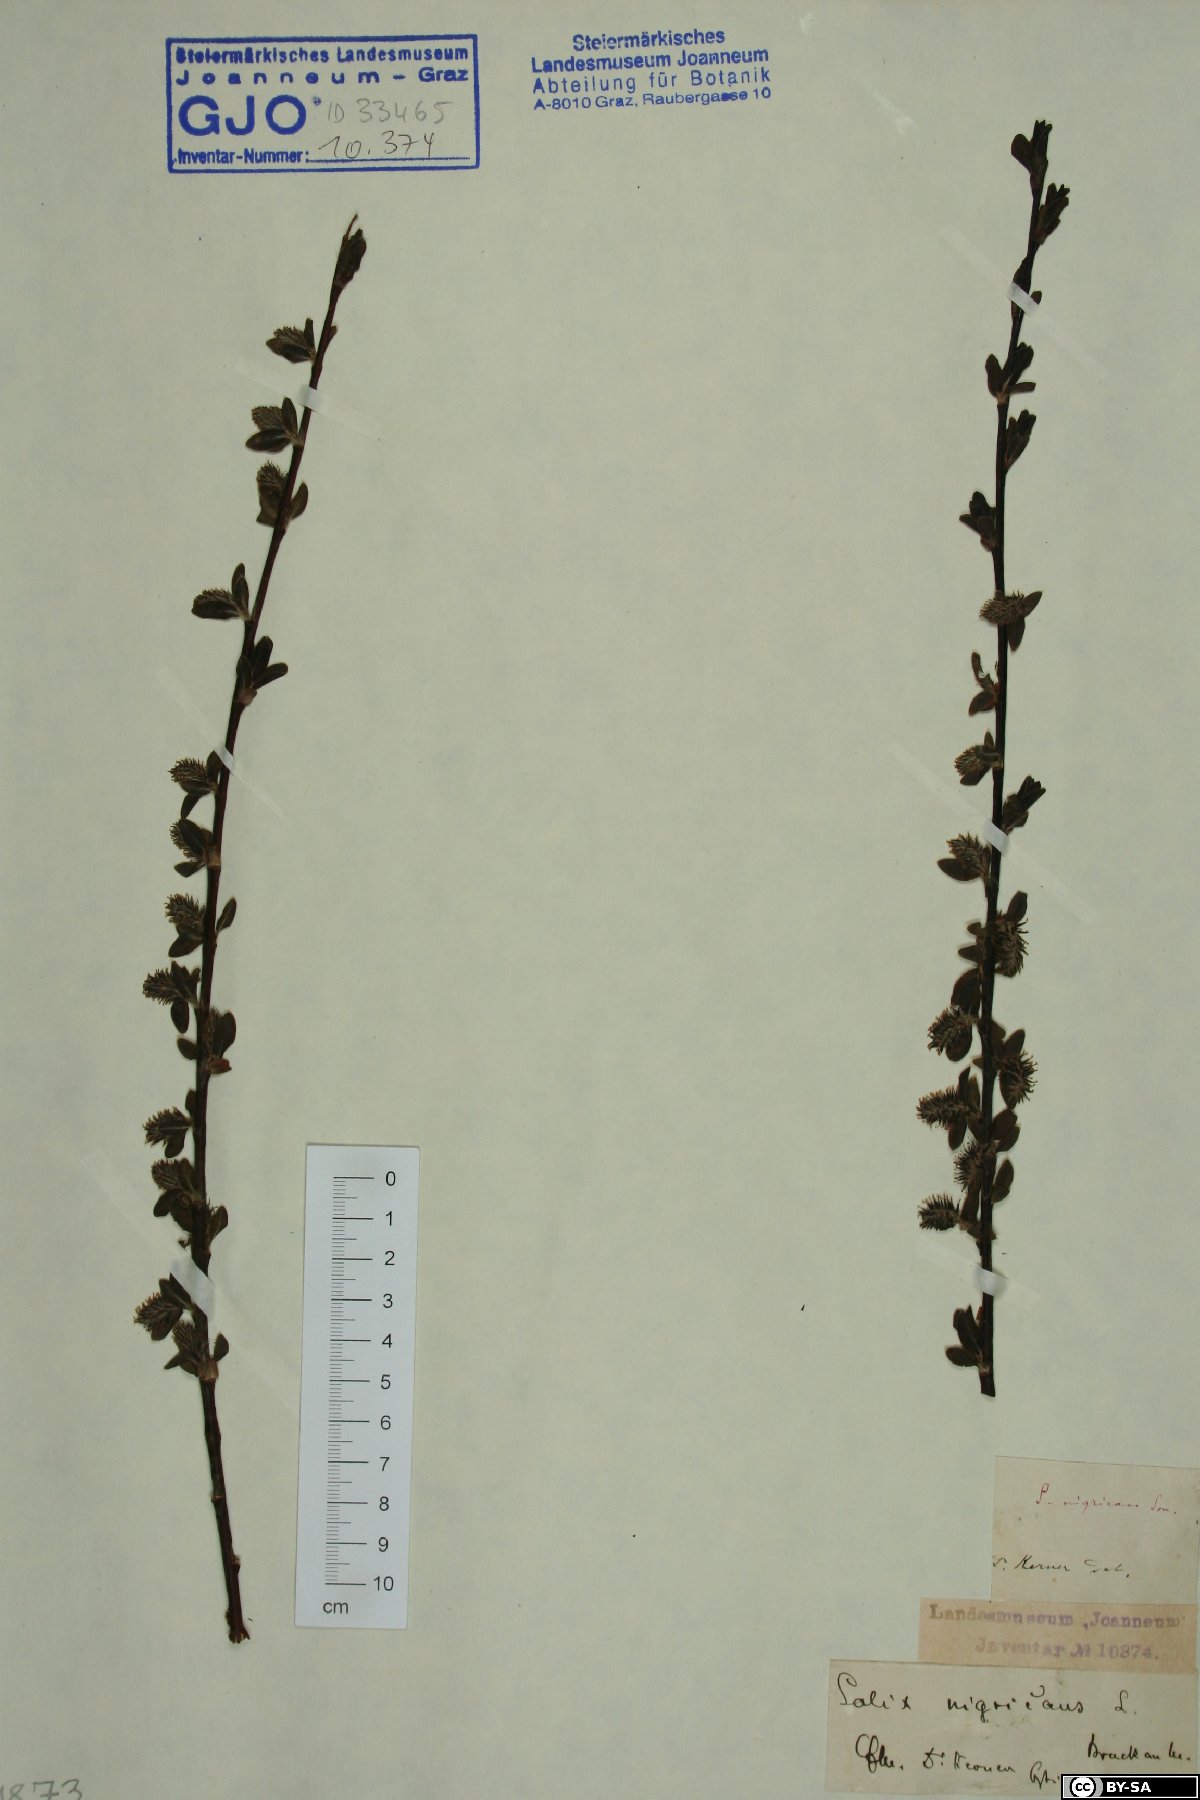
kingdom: Plantae
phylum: Tracheophyta
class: Magnoliopsida
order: Malpighiales
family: Salicaceae
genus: Salix
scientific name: Salix myrsinifolia
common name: Dark-leaved willow
